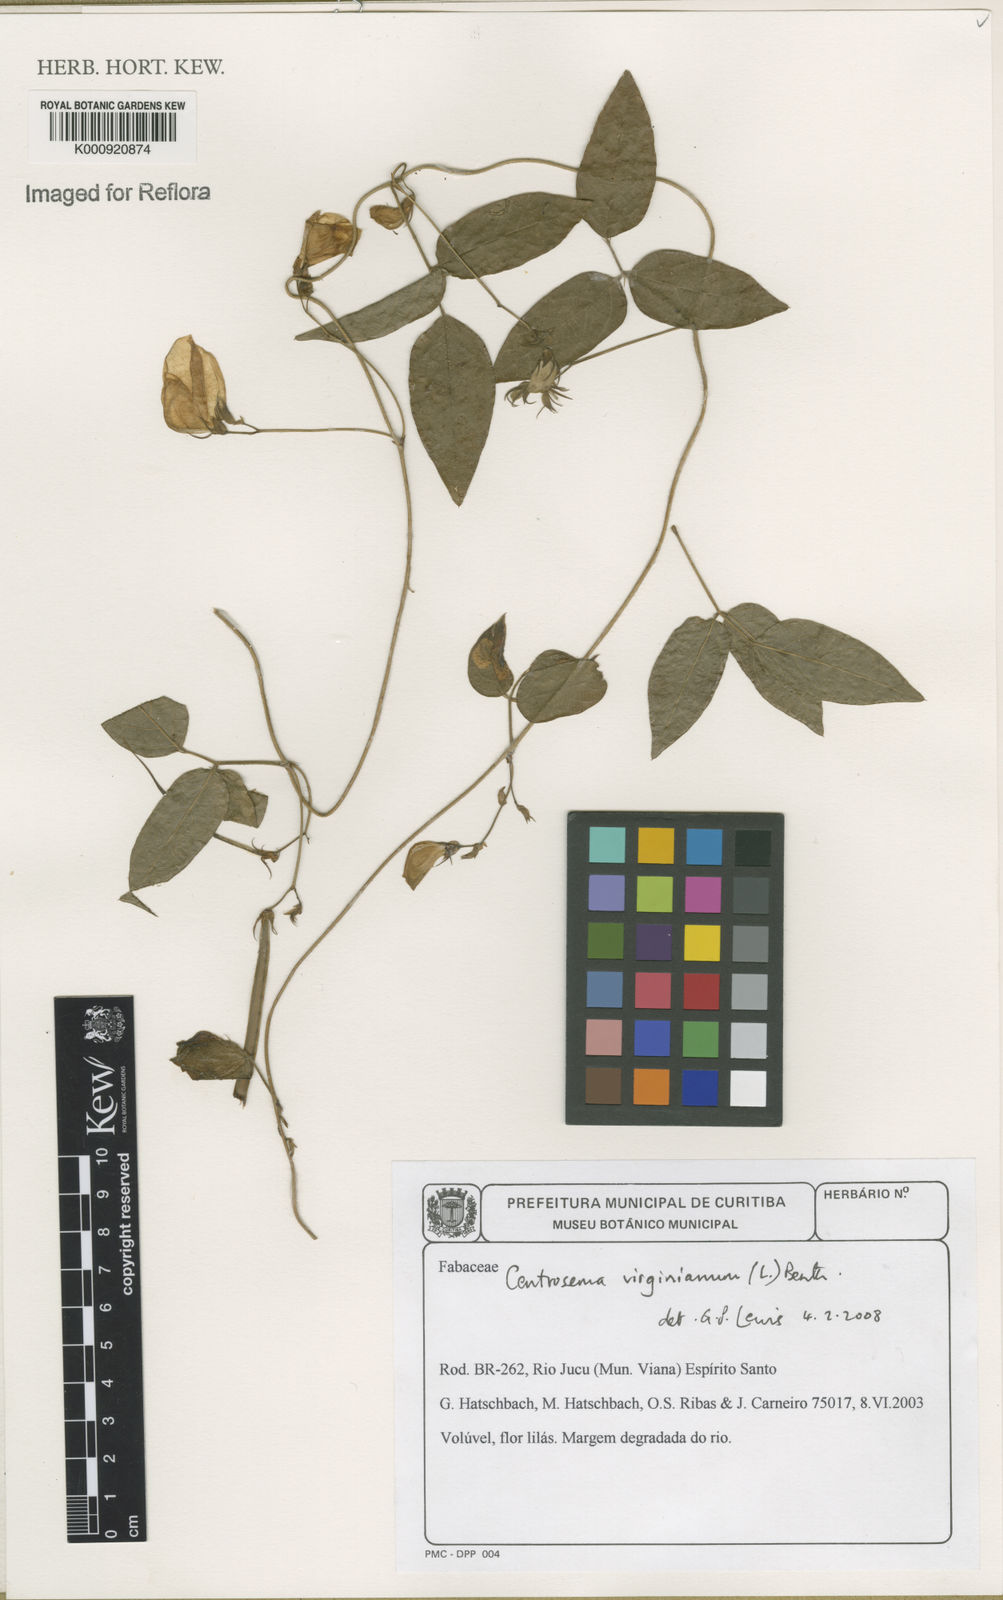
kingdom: Plantae
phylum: Tracheophyta
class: Magnoliopsida
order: Fabales
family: Fabaceae
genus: Centrosema
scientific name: Centrosema virginianum
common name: Butterfly-pea
